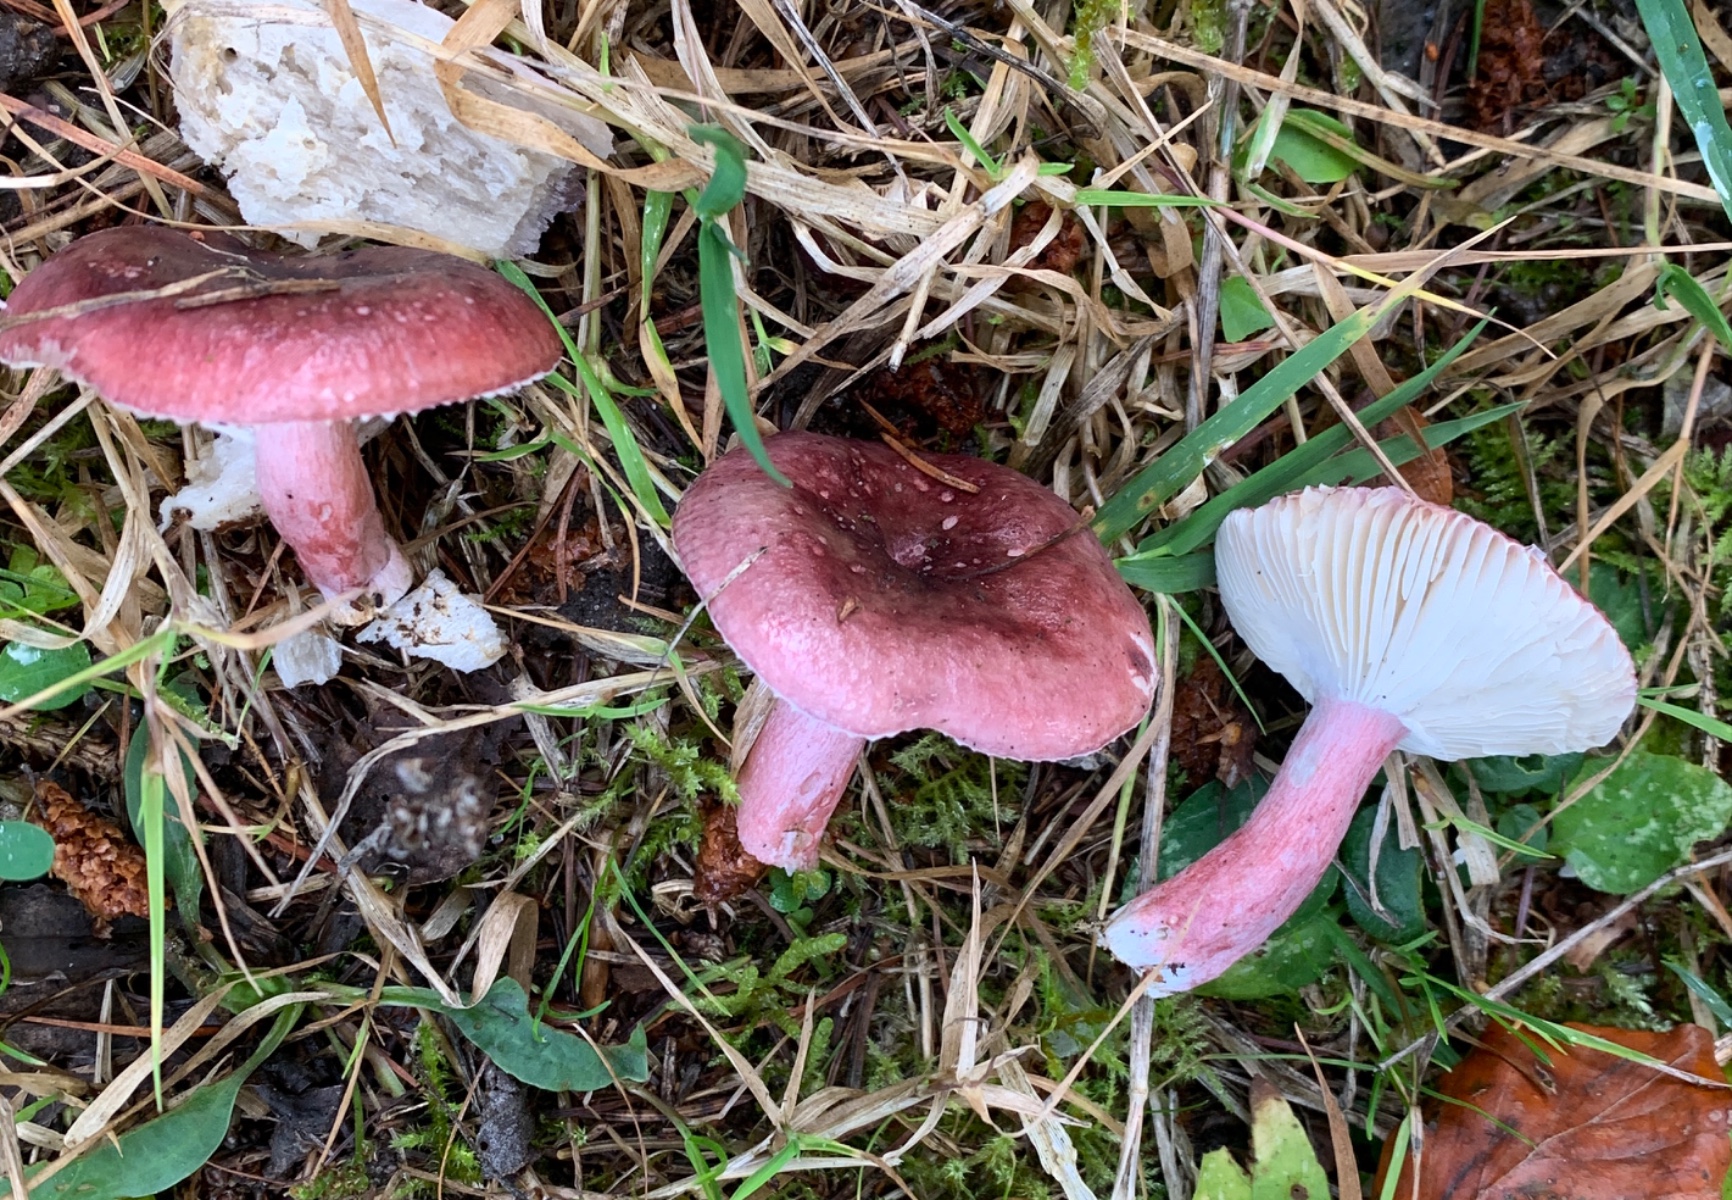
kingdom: Fungi
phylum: Basidiomycota
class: Agaricomycetes
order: Russulales
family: Russulaceae
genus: Russula
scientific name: Russula queletii
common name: Quélets skørhat
